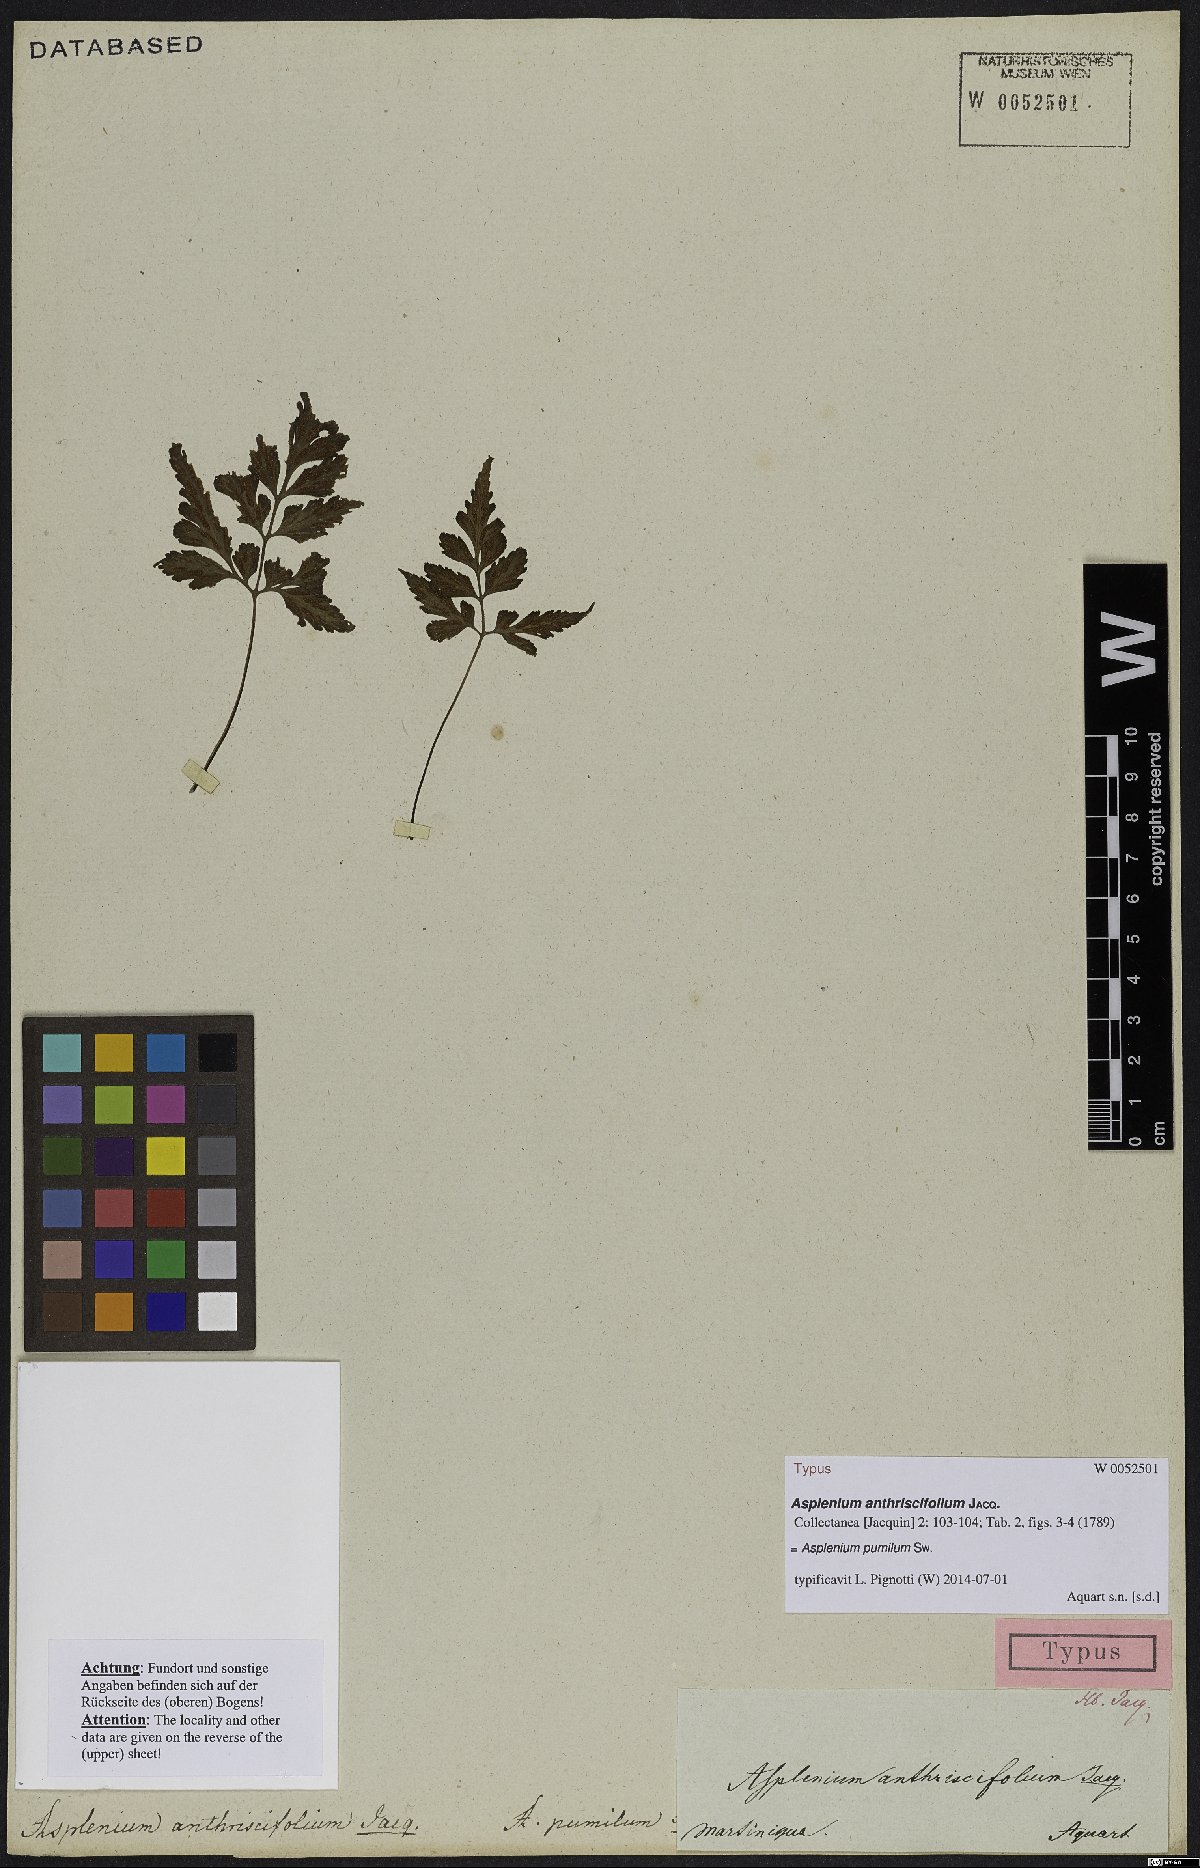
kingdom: Plantae
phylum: Tracheophyta
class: Polypodiopsida
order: Polypodiales
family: Aspleniaceae
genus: Asplenium
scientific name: Asplenium pumilum
